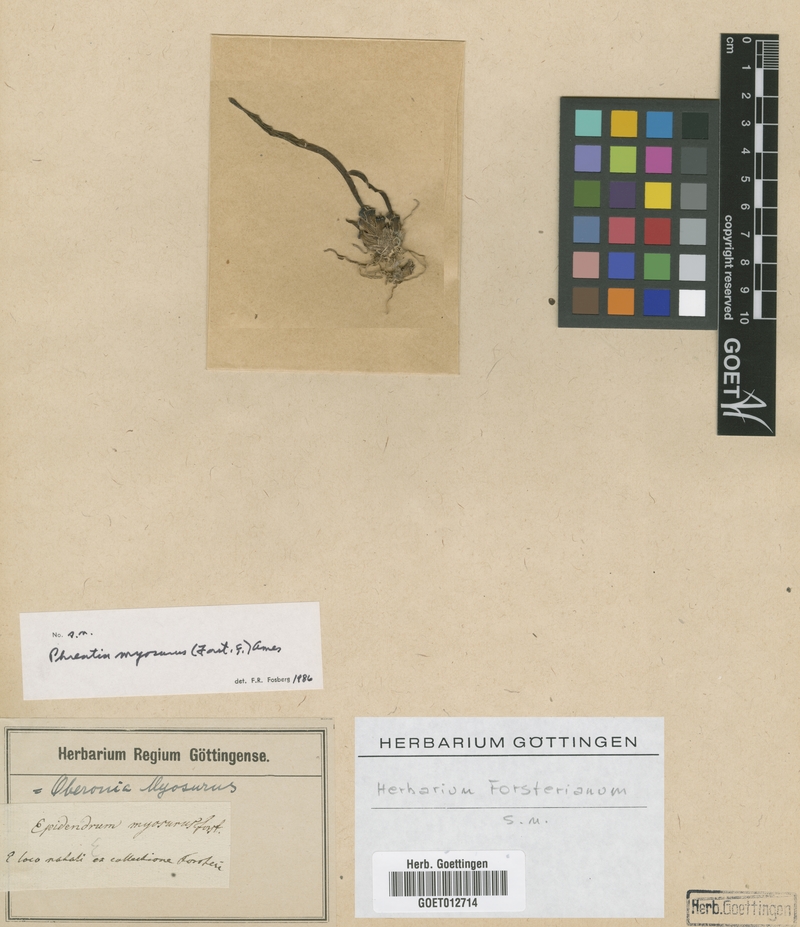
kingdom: Plantae
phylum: Tracheophyta
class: Liliopsida
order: Asparagales
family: Orchidaceae
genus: Phreatia
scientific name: Phreatia inversa
